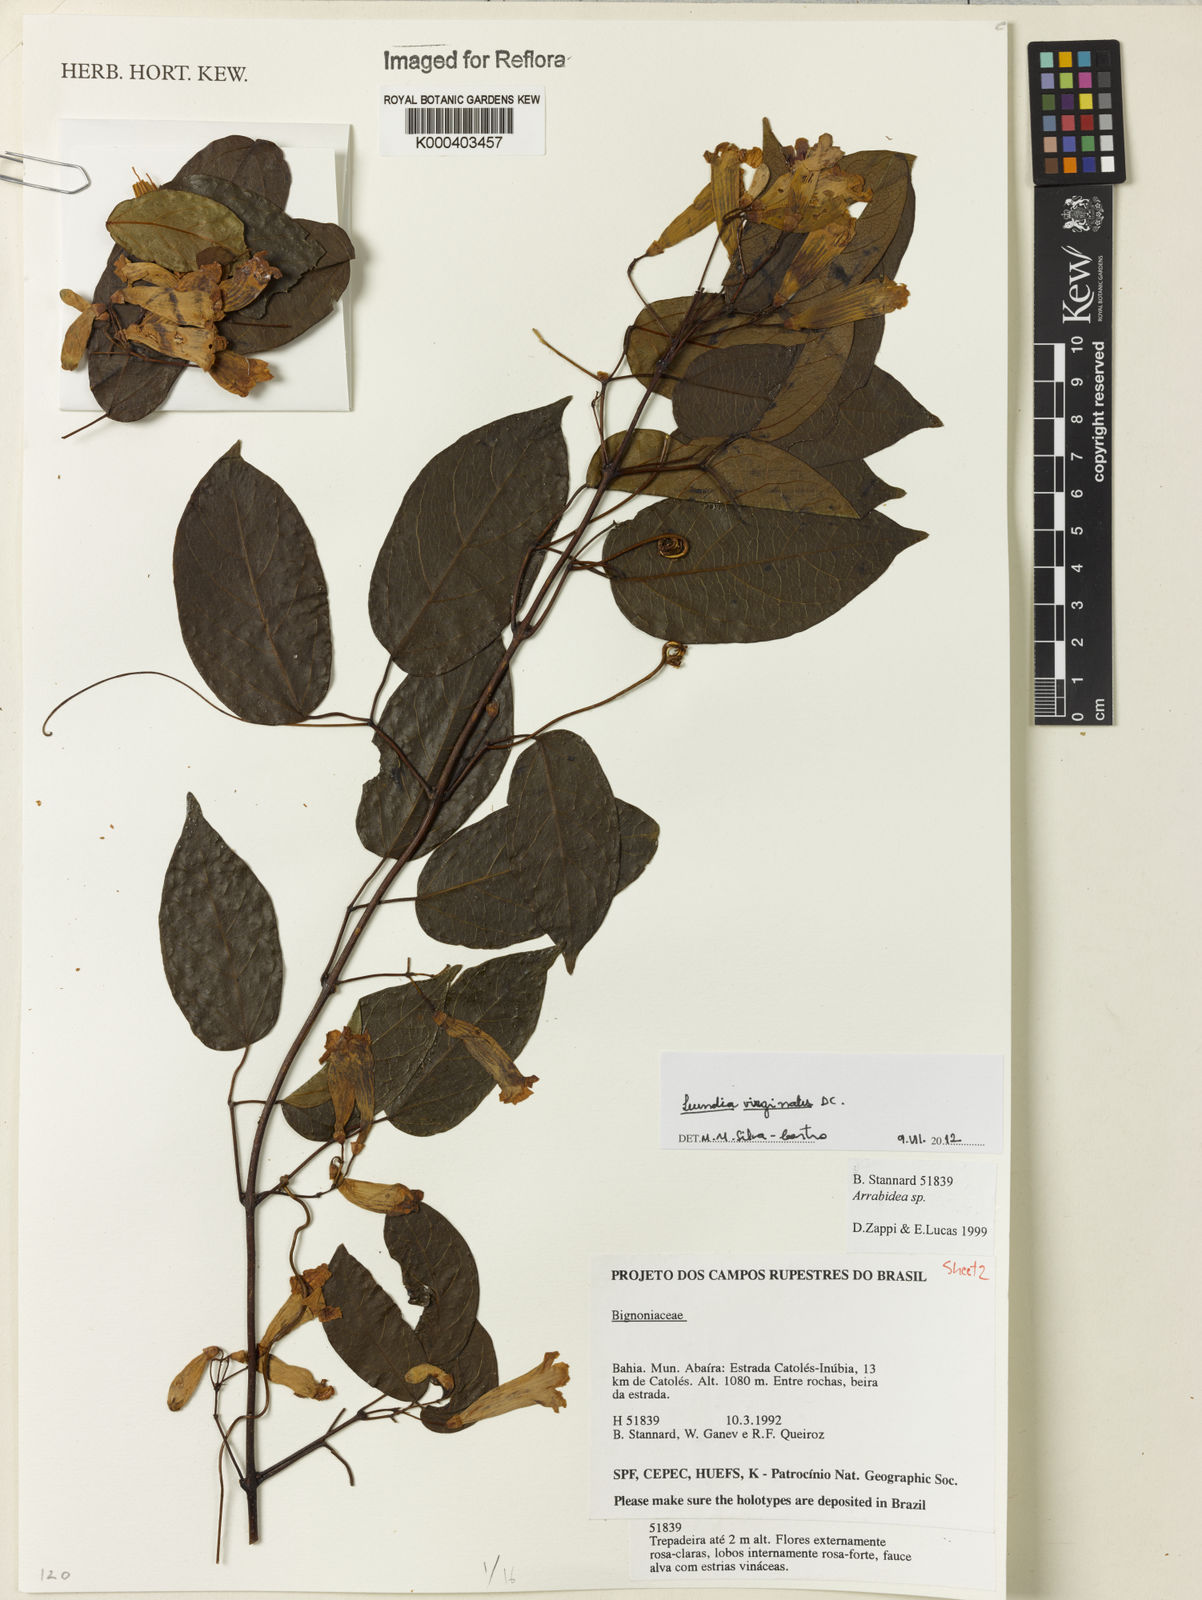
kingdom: Plantae
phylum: Tracheophyta
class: Magnoliopsida
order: Lamiales
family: Bignoniaceae
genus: Lundia
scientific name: Lundia virginalis
